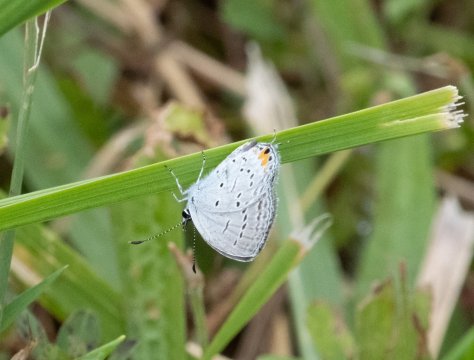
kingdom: Animalia
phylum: Arthropoda
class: Insecta
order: Lepidoptera
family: Lycaenidae
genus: Elkalyce
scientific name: Elkalyce comyntas
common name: Eastern Tailed-Blue
